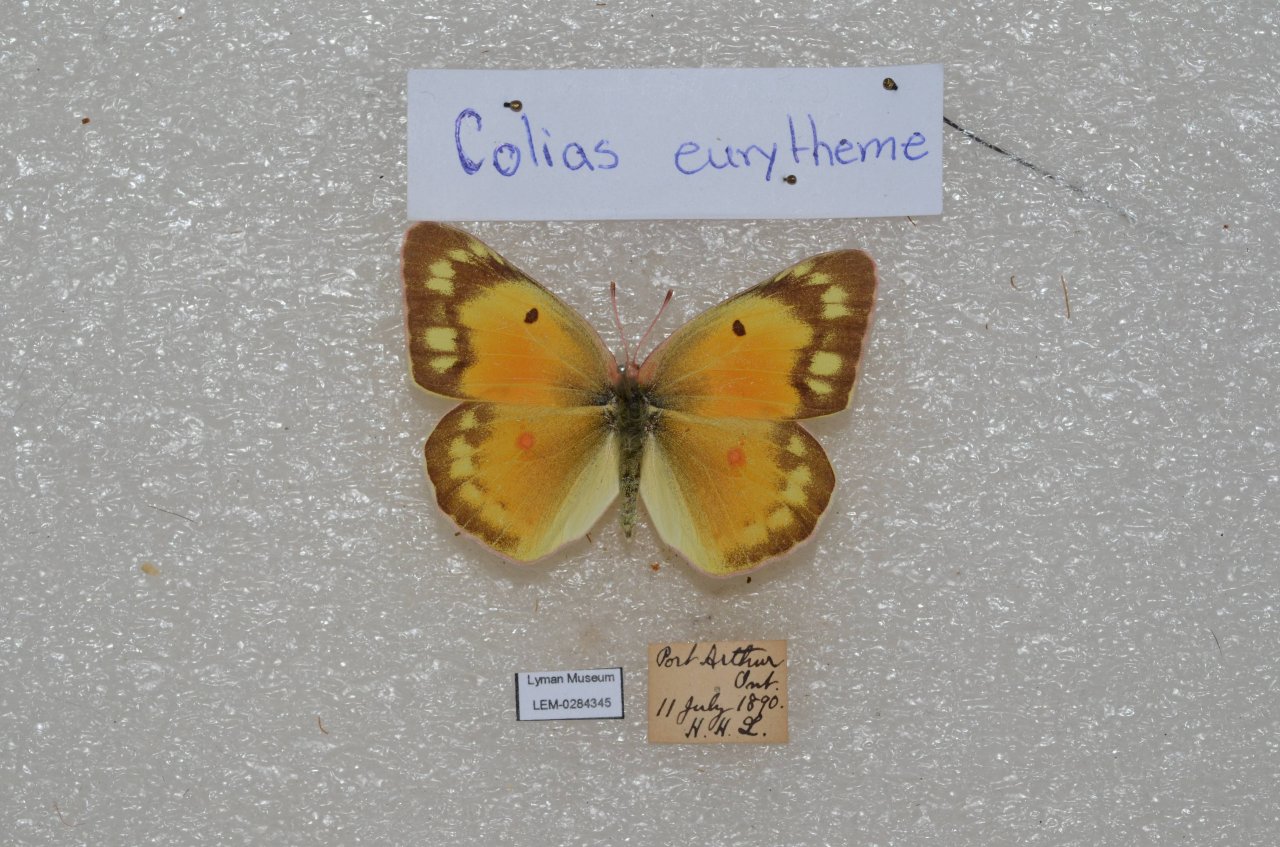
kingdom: Animalia
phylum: Arthropoda
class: Insecta
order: Lepidoptera
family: Pieridae
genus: Colias
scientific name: Colias eurytheme
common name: Orange Sulphur
